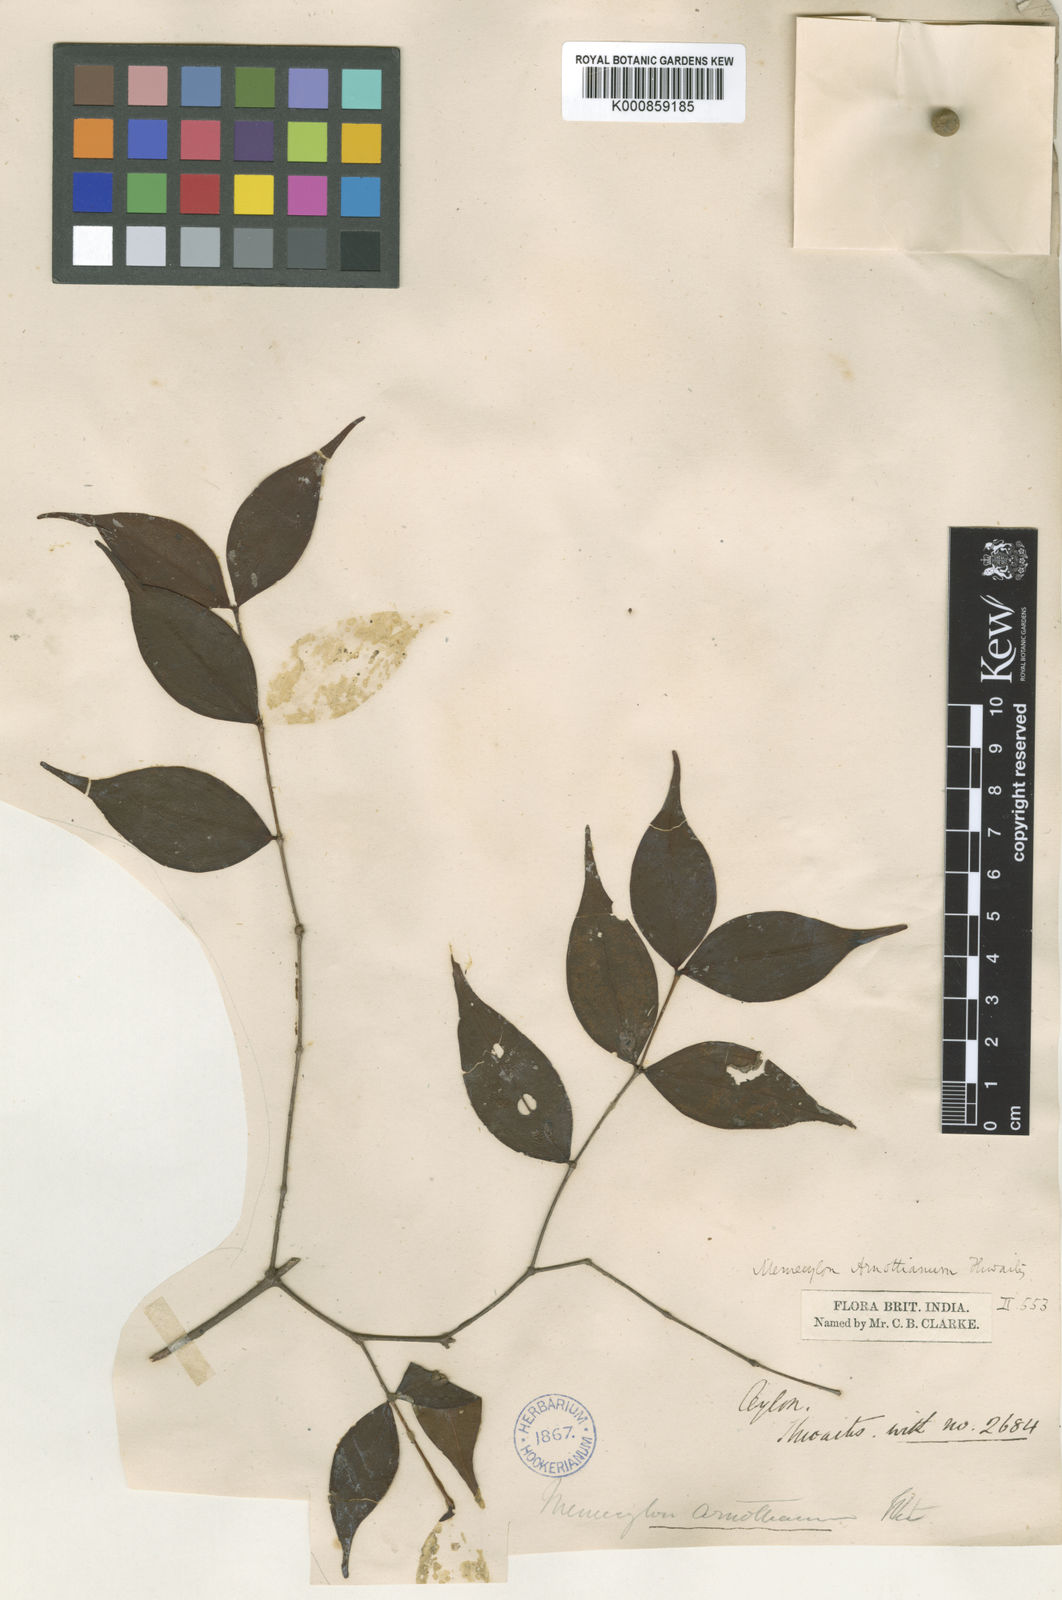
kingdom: Plantae
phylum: Tracheophyta
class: Magnoliopsida
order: Myrtales
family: Melastomataceae
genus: Memecylon
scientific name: Memecylon rostratum
